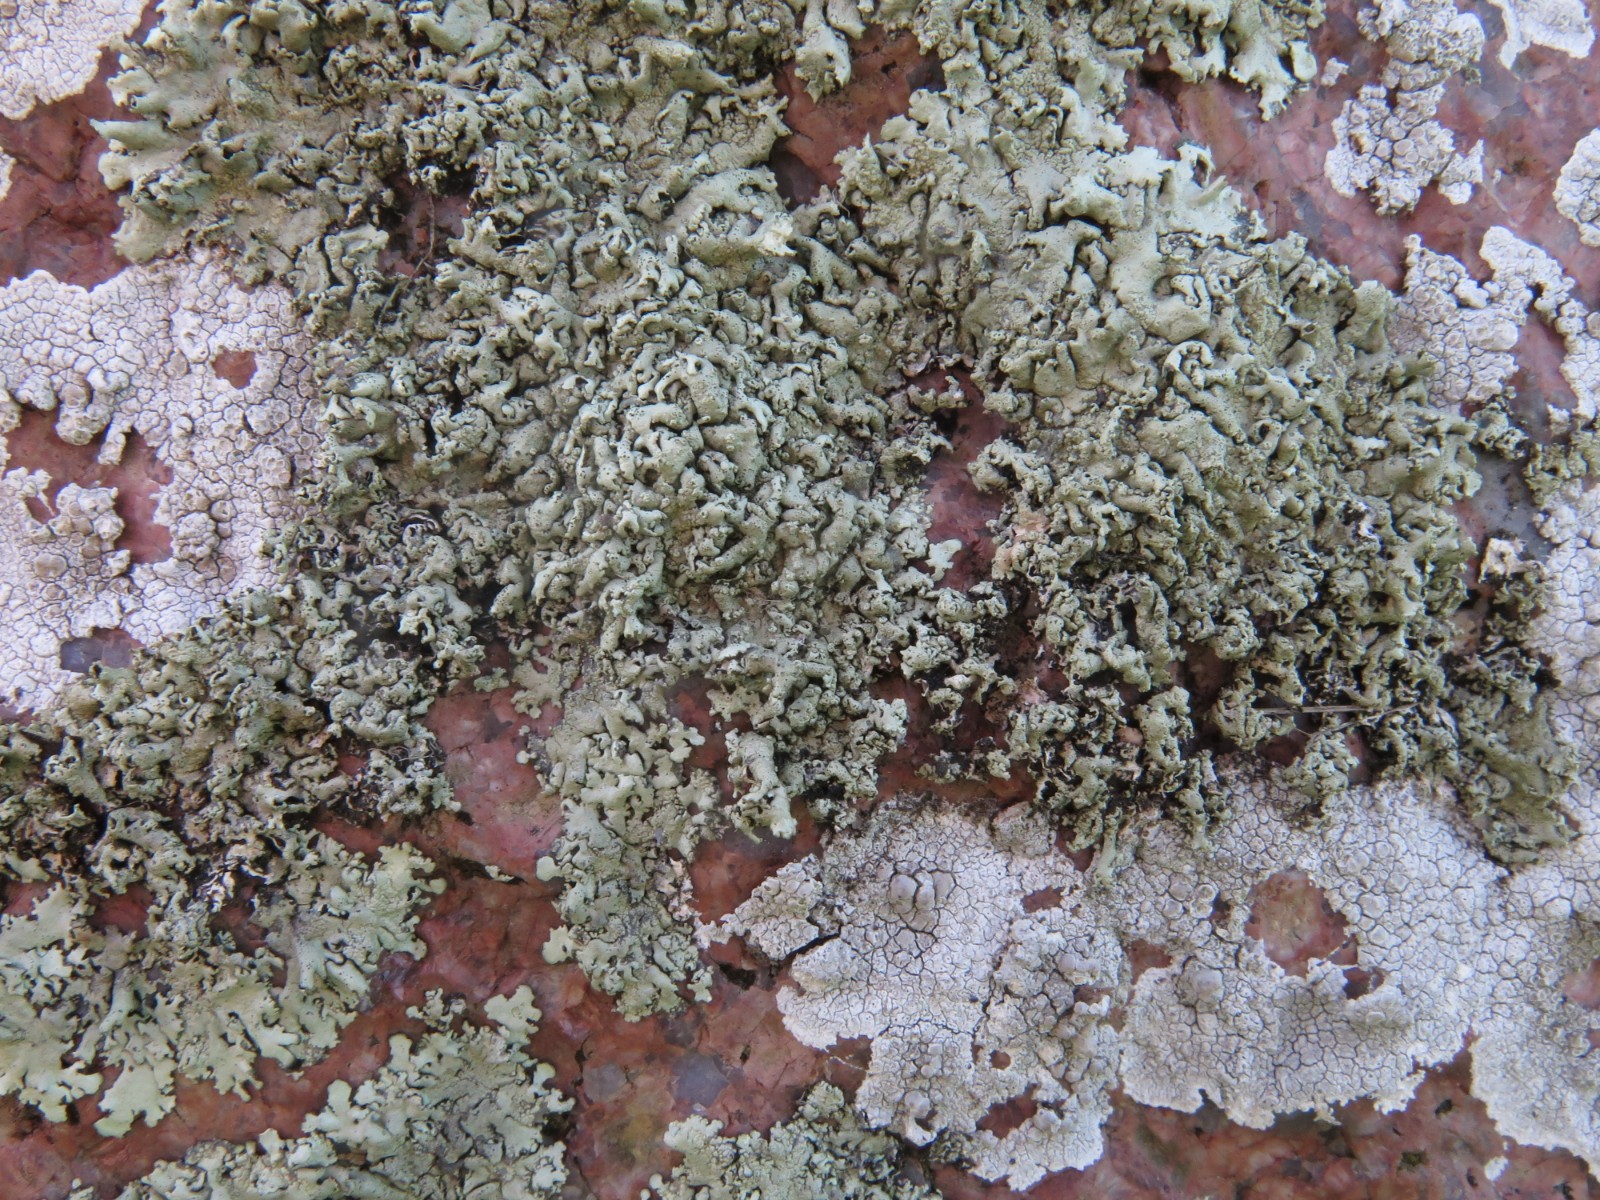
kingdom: Fungi
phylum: Ascomycota
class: Lecanoromycetes
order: Lecanorales
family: Parmeliaceae
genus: Xanthoparmelia
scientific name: Xanthoparmelia conspersa
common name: messing-skållav
